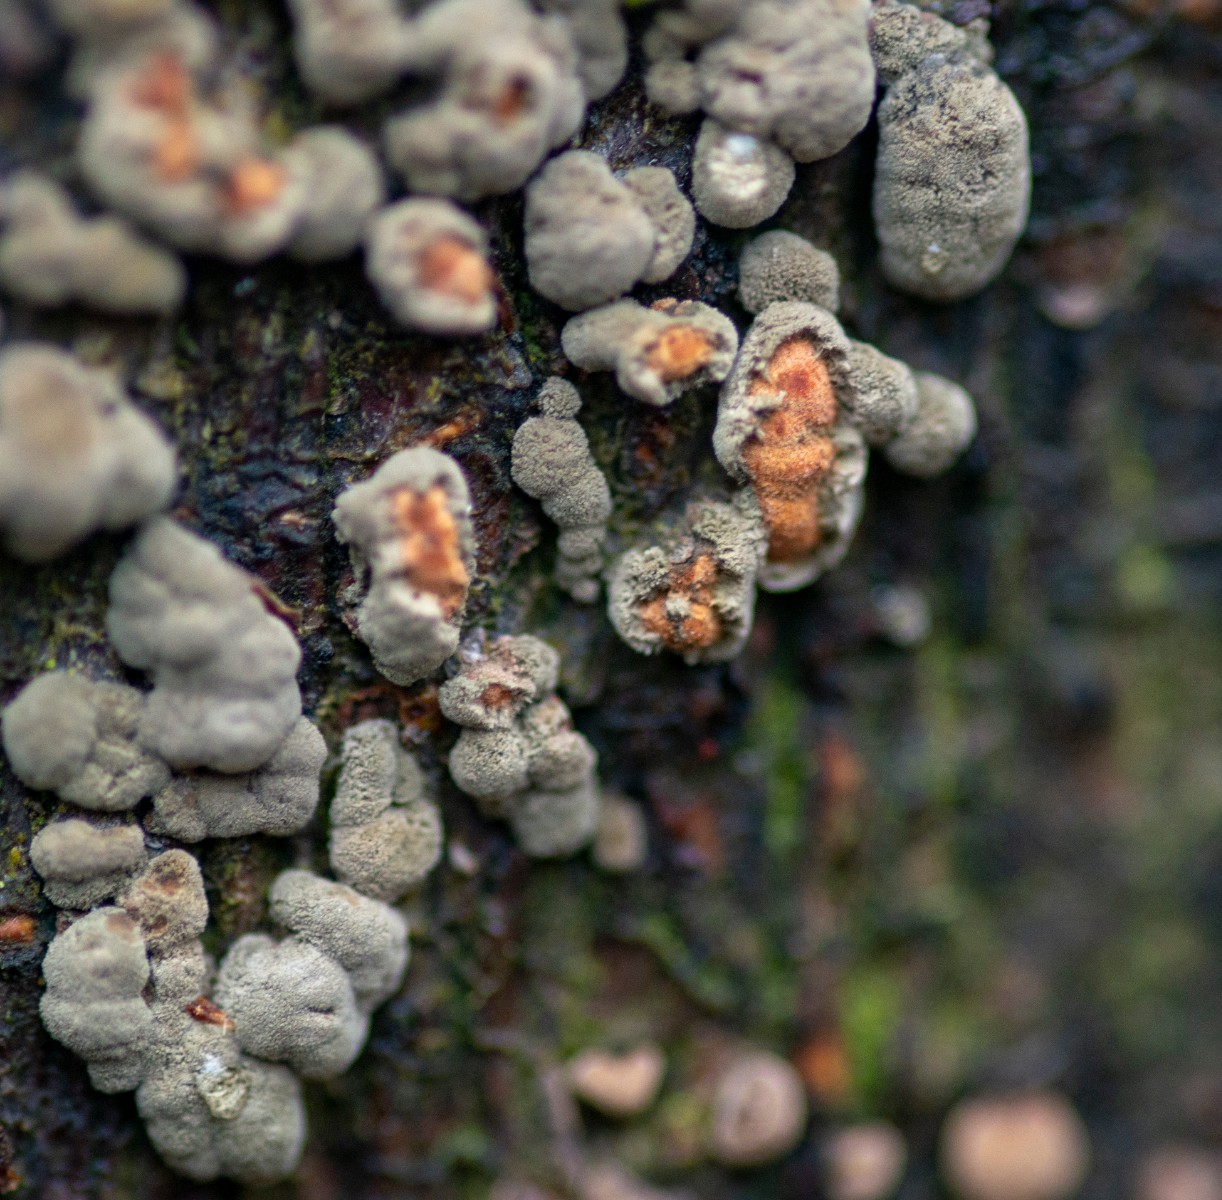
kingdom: Fungi
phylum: Ascomycota
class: Sordariomycetes
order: Xylariales
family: Hypoxylaceae
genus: Hypoxylon
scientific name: Hypoxylon fragiforme
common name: kuljordbær
